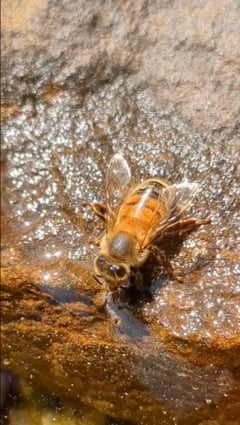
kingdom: Animalia
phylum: Arthropoda
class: Insecta
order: Hymenoptera
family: Apidae
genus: Apis
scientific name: Apis mellifera
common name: Honey bee
